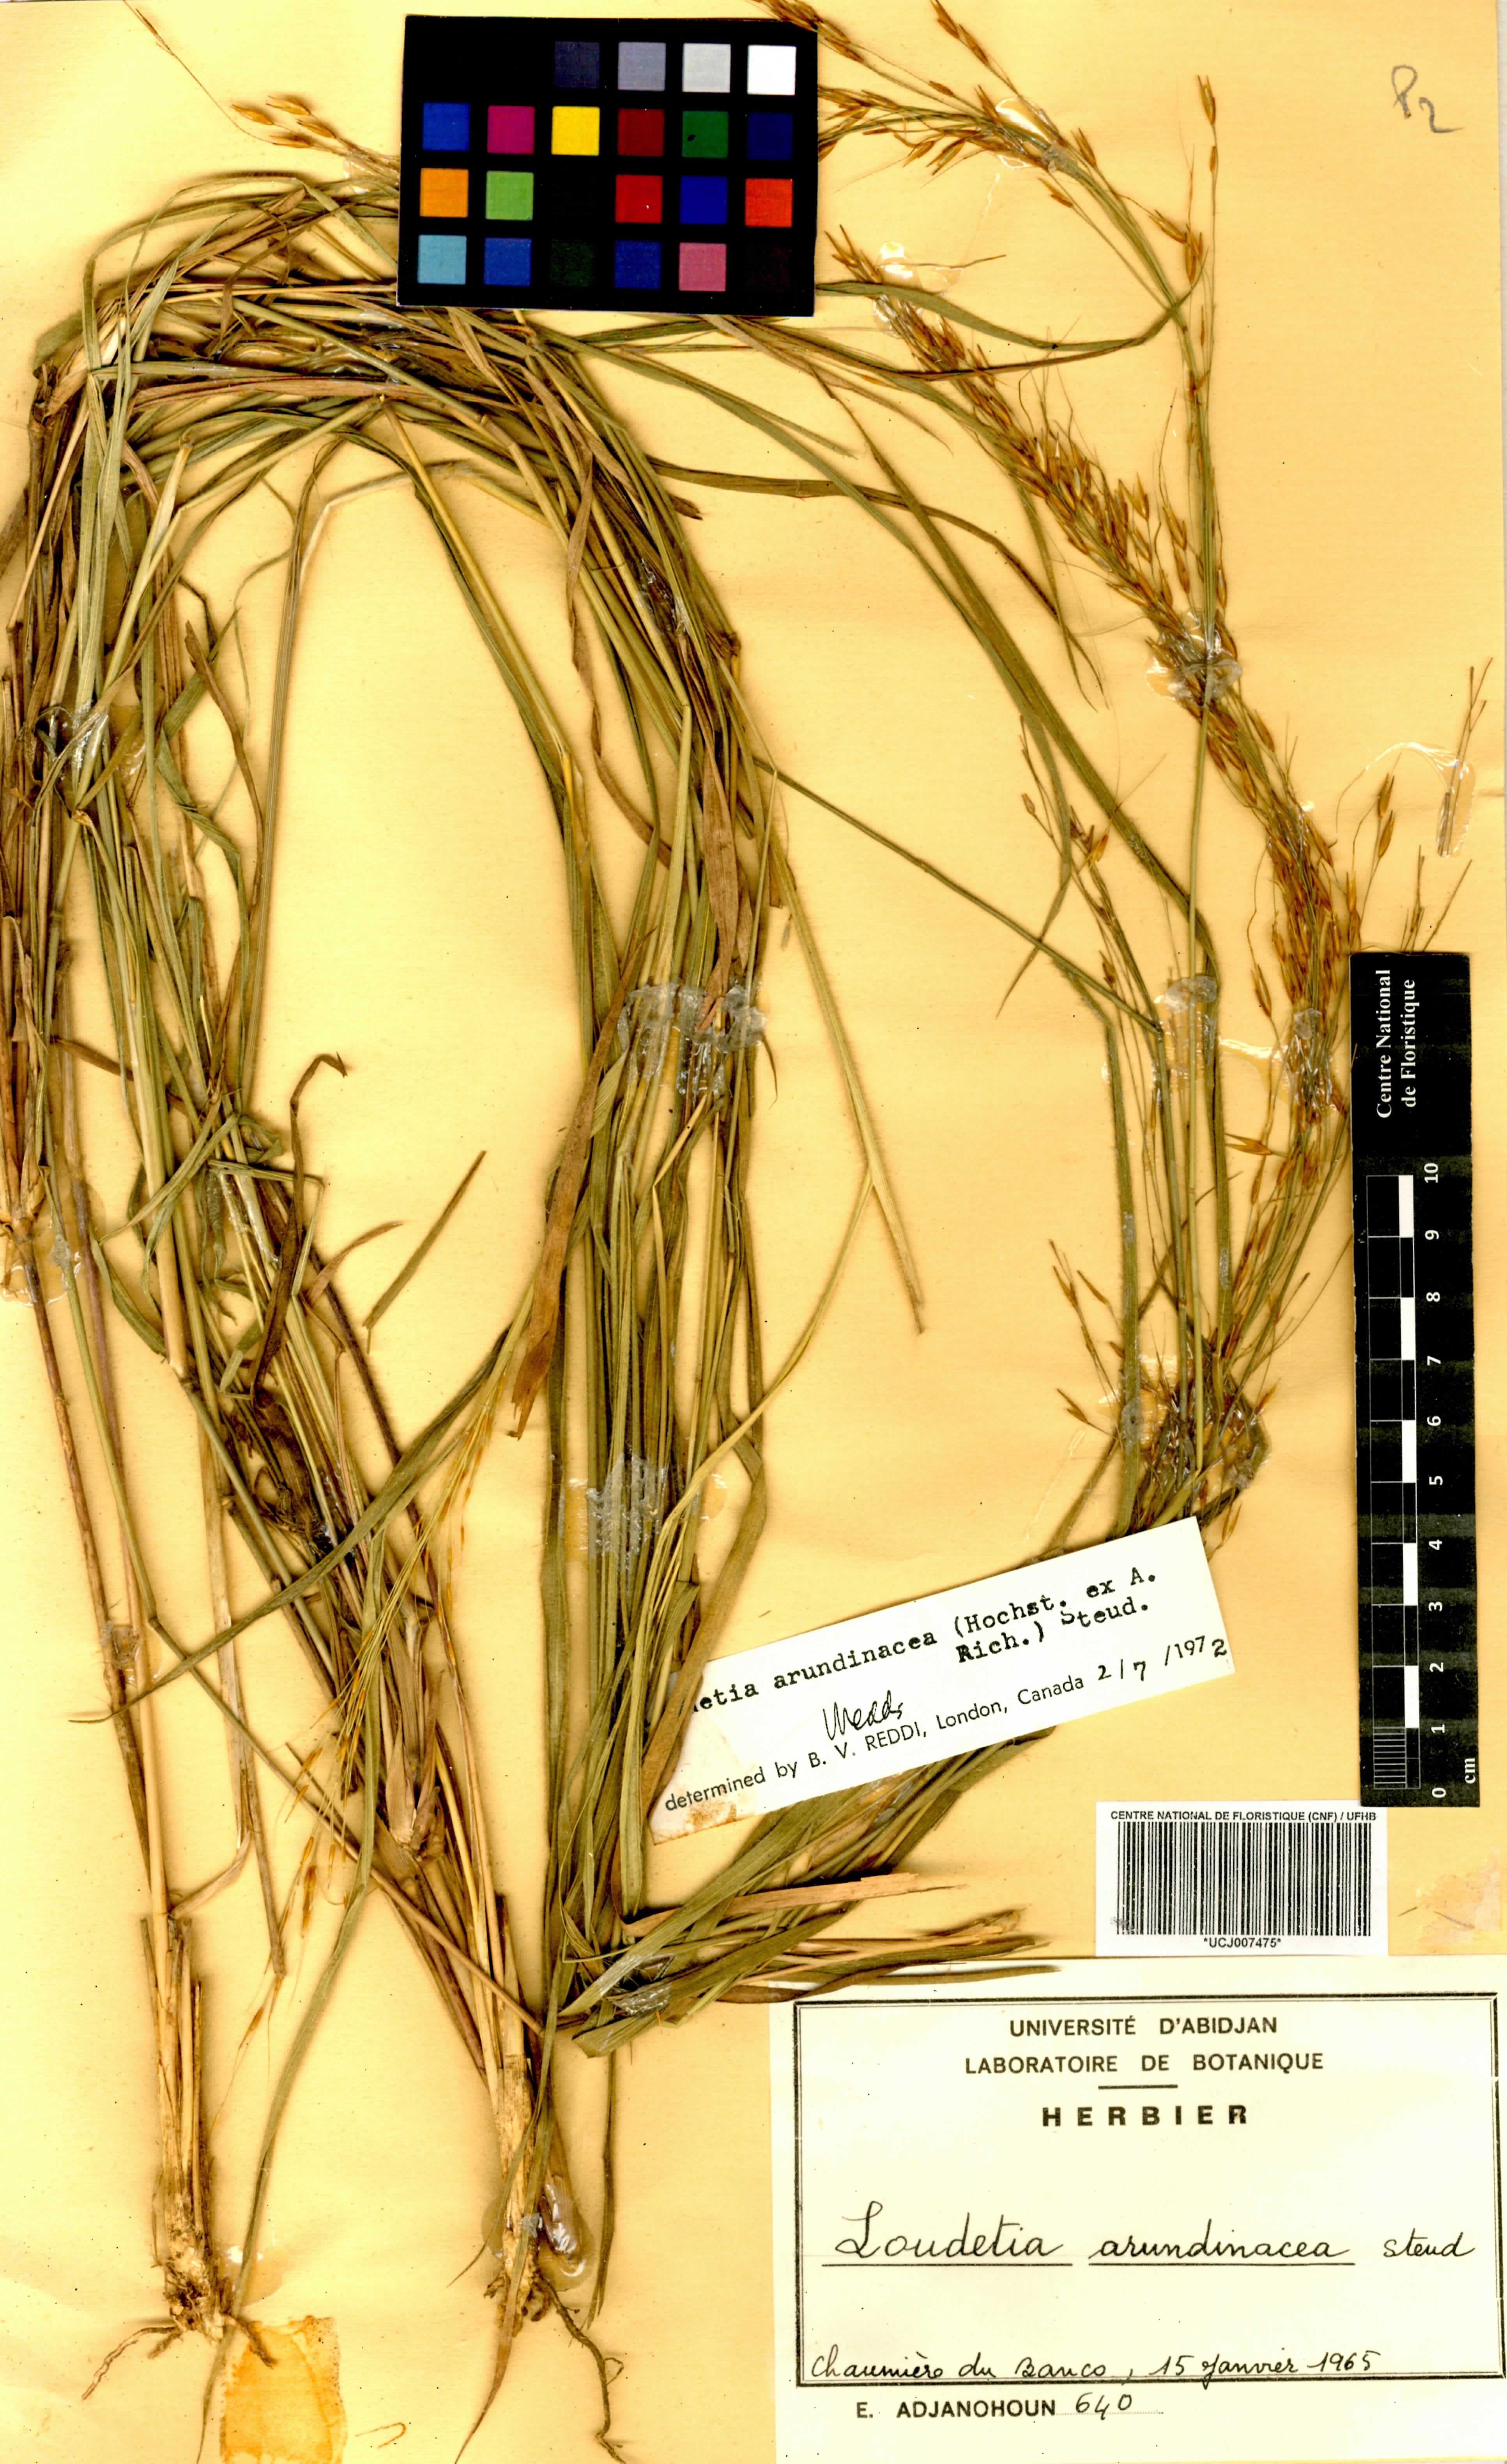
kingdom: Plantae
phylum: Tracheophyta
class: Liliopsida
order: Poales
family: Poaceae
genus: Loudetia
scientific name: Loudetia arundinacea
